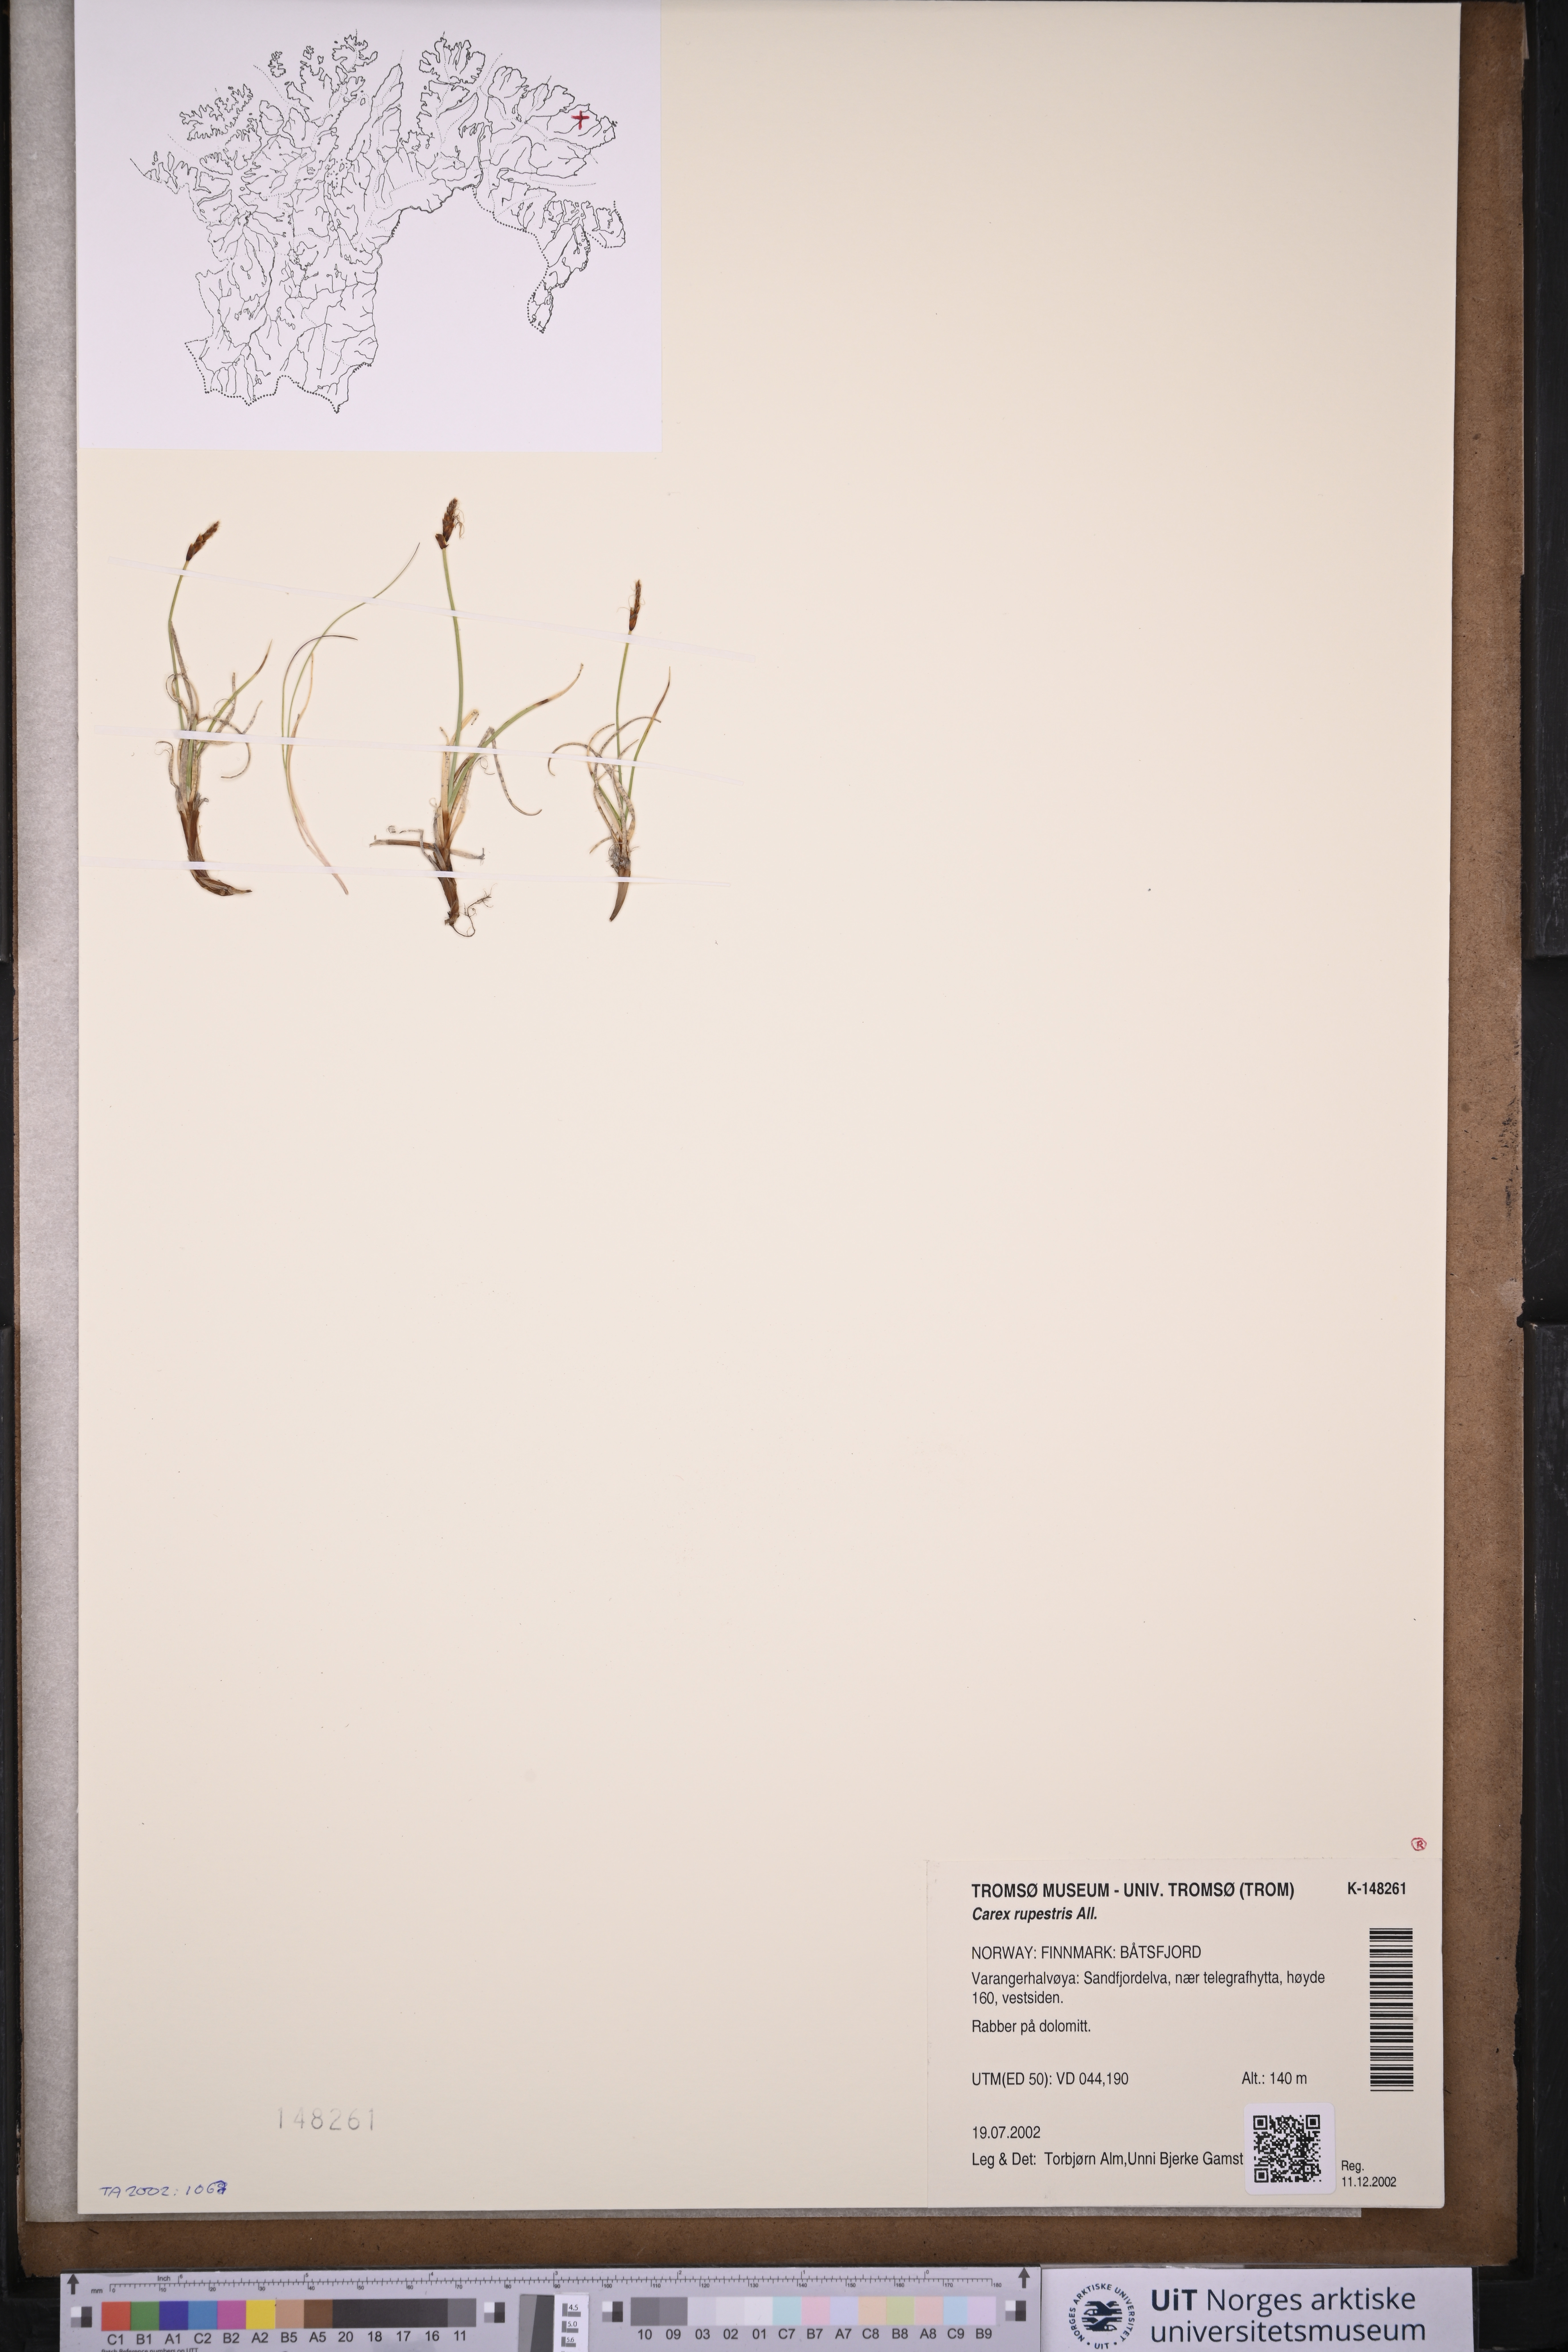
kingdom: Plantae
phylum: Tracheophyta
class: Liliopsida
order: Poales
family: Cyperaceae
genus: Carex
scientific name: Carex rupestris
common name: Rock sedge
